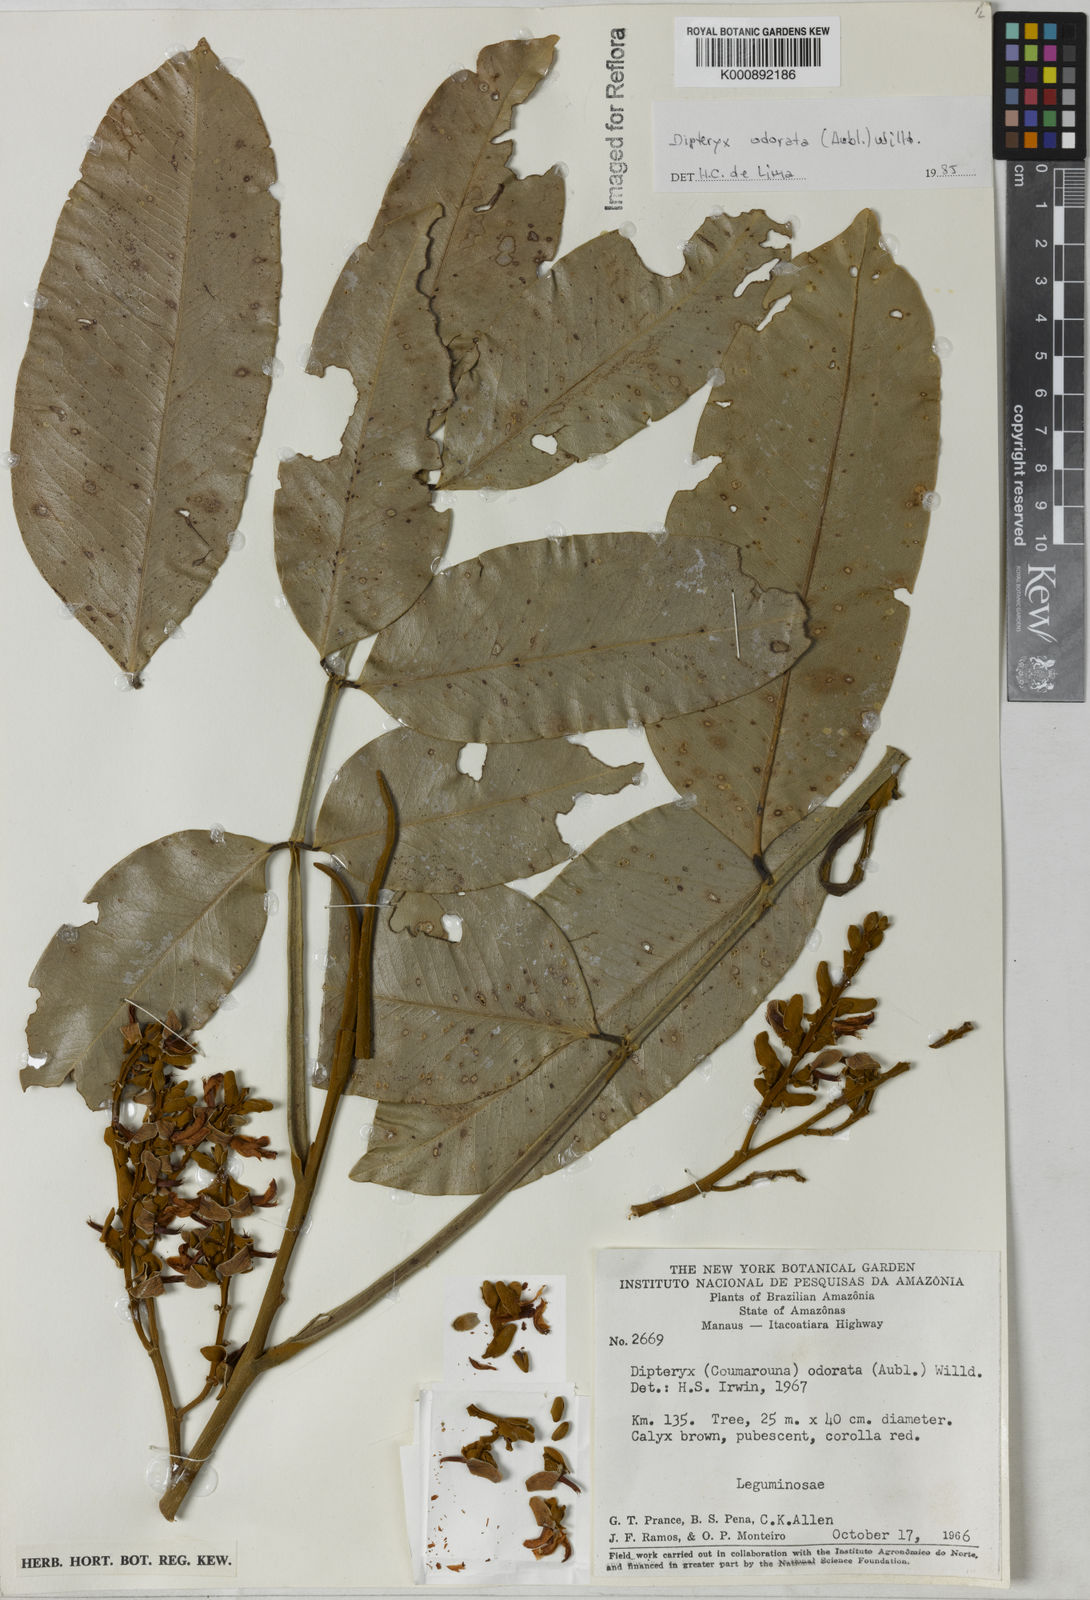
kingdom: Plantae
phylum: Tracheophyta
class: Magnoliopsida
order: Fabales
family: Fabaceae
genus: Dipteryx
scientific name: Dipteryx
